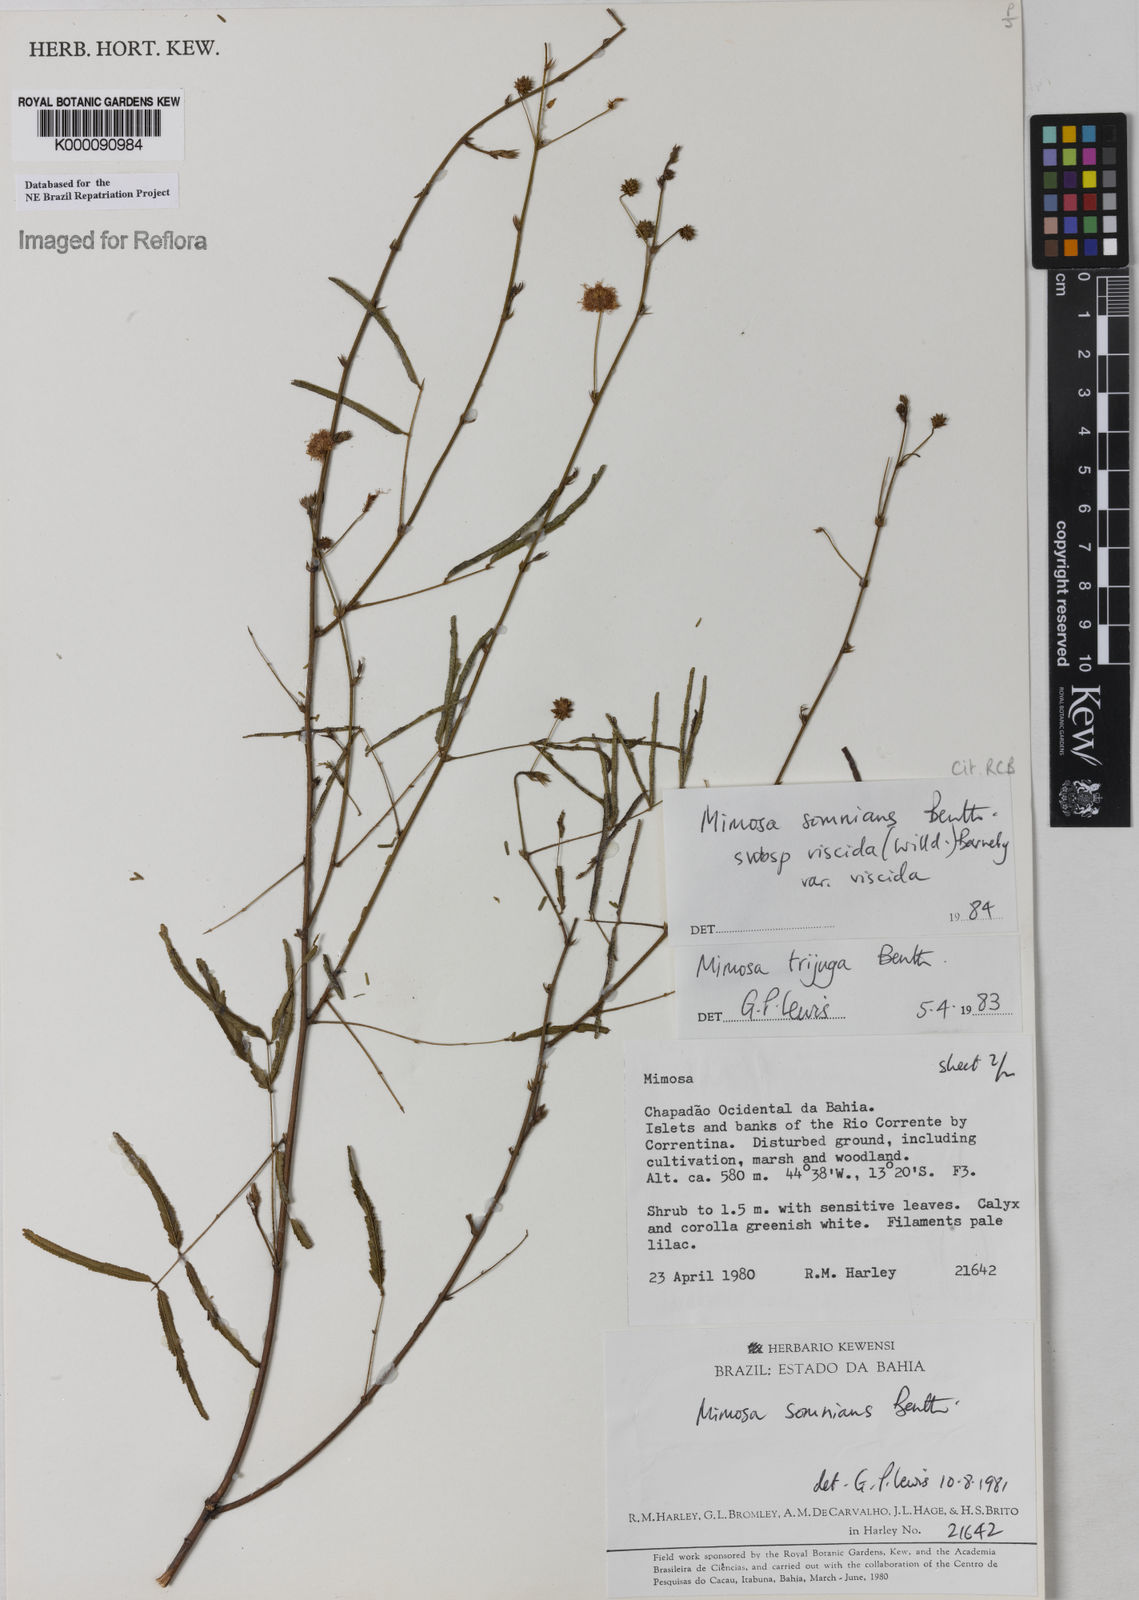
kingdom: Plantae
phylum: Tracheophyta
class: Magnoliopsida
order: Fabales
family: Fabaceae
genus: Mimosa
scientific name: Mimosa somnians
